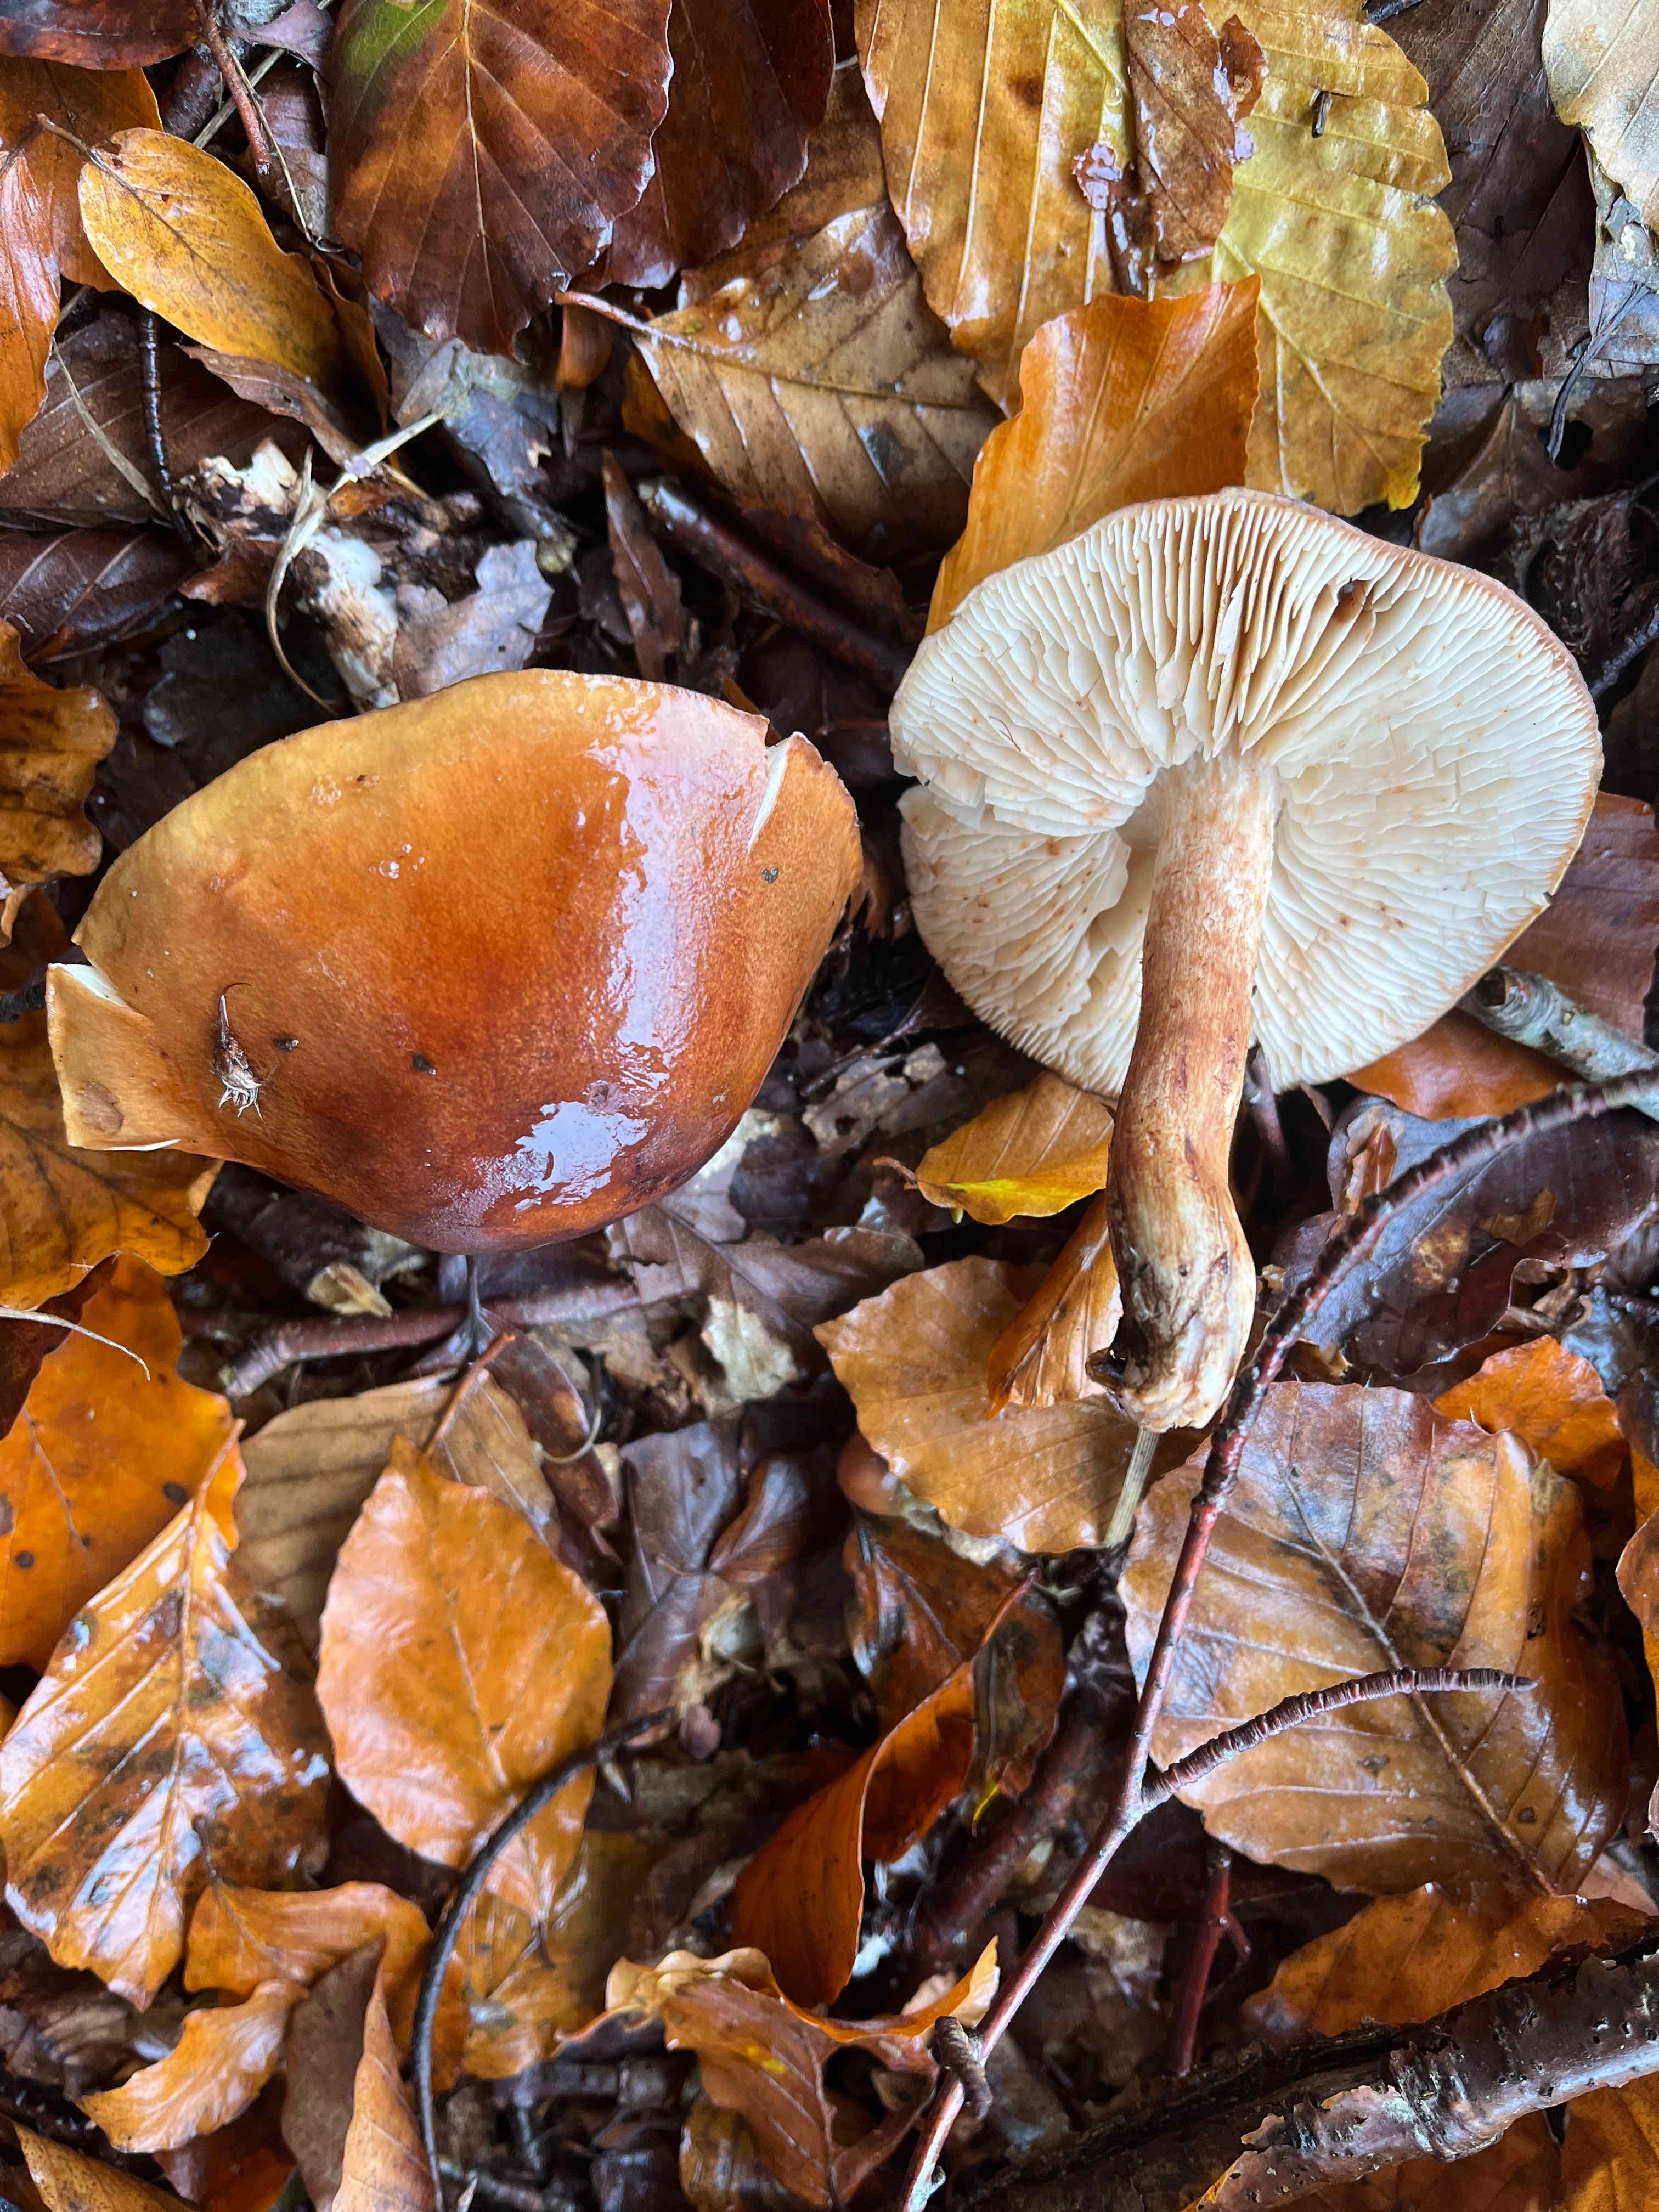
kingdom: Fungi
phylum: Basidiomycota
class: Agaricomycetes
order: Agaricales
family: Tricholomataceae
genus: Tricholoma
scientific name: Tricholoma ustale
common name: sveden ridderhat
